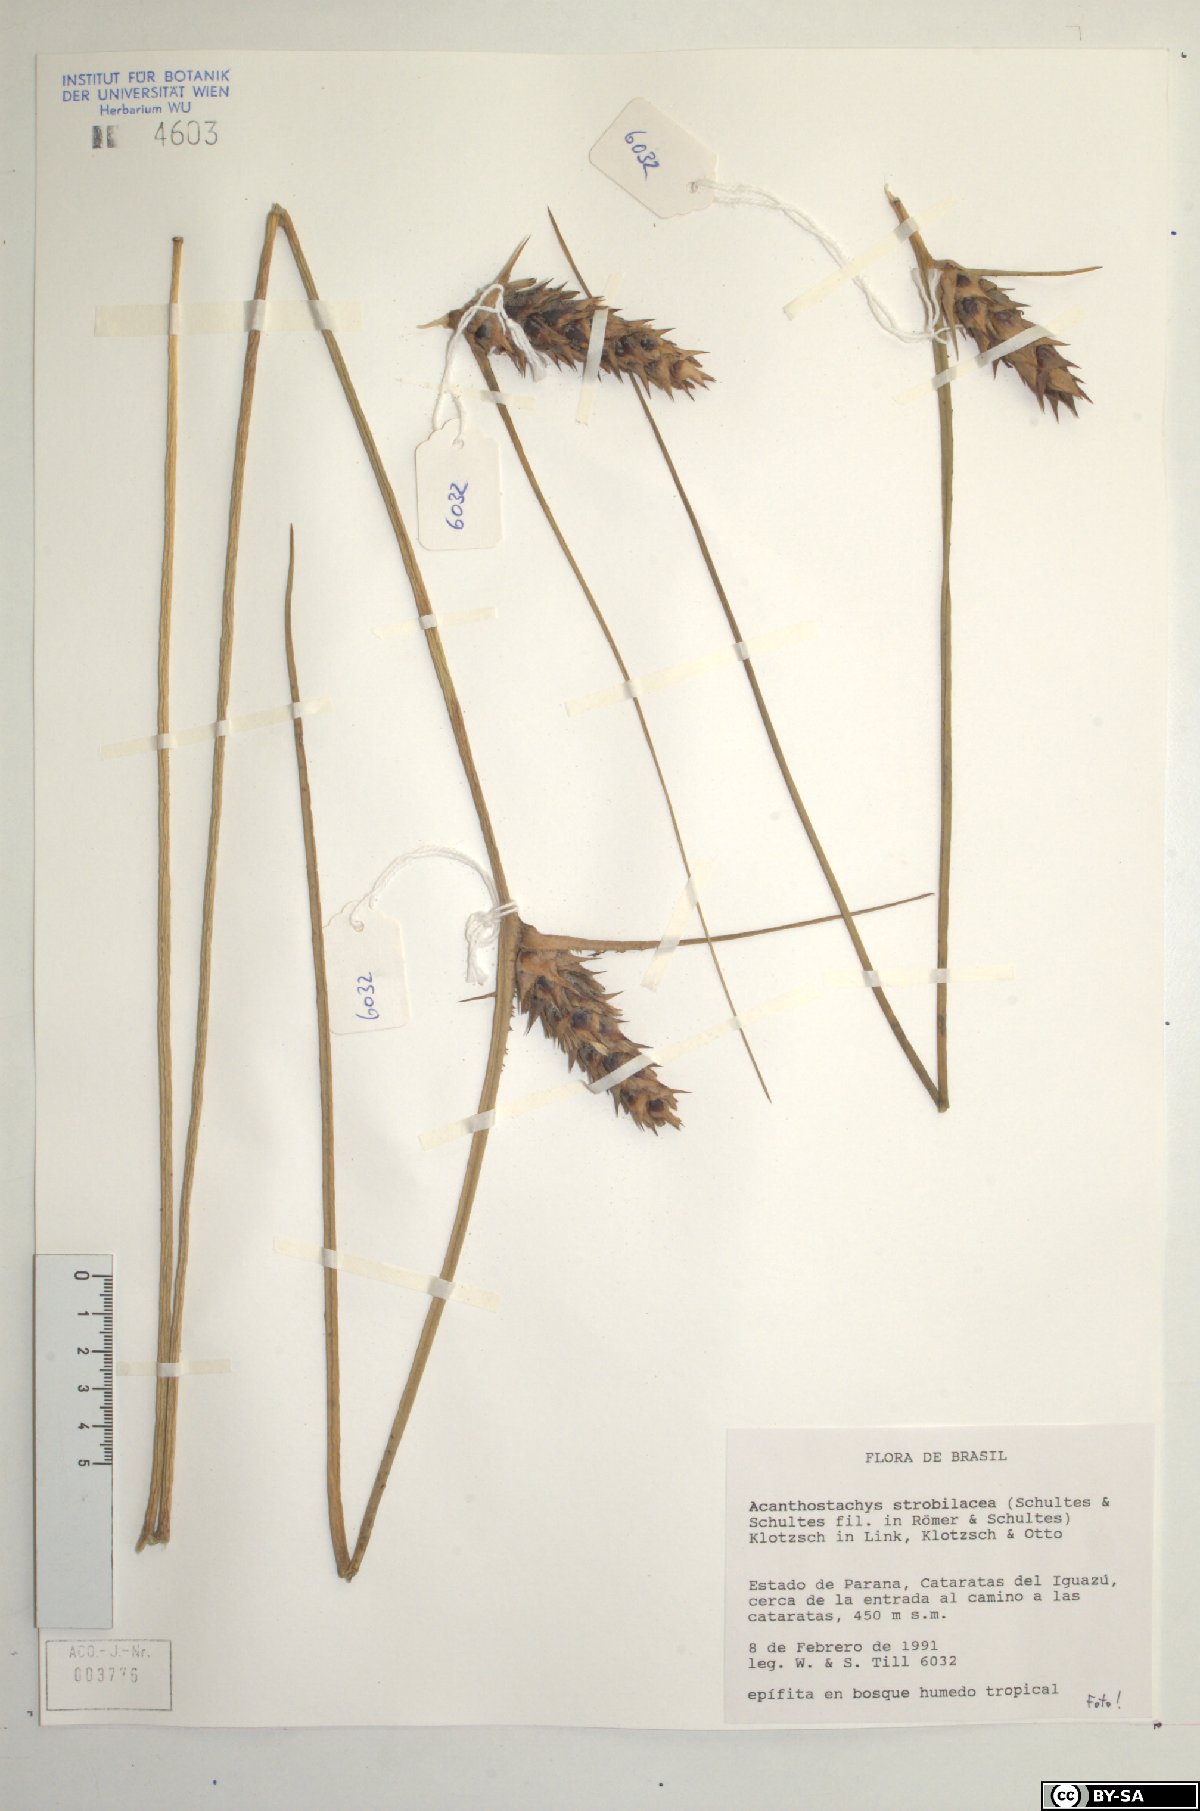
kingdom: Plantae
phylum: Tracheophyta
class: Liliopsida
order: Poales
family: Bromeliaceae
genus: Acanthostachys
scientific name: Acanthostachys strobilacea
